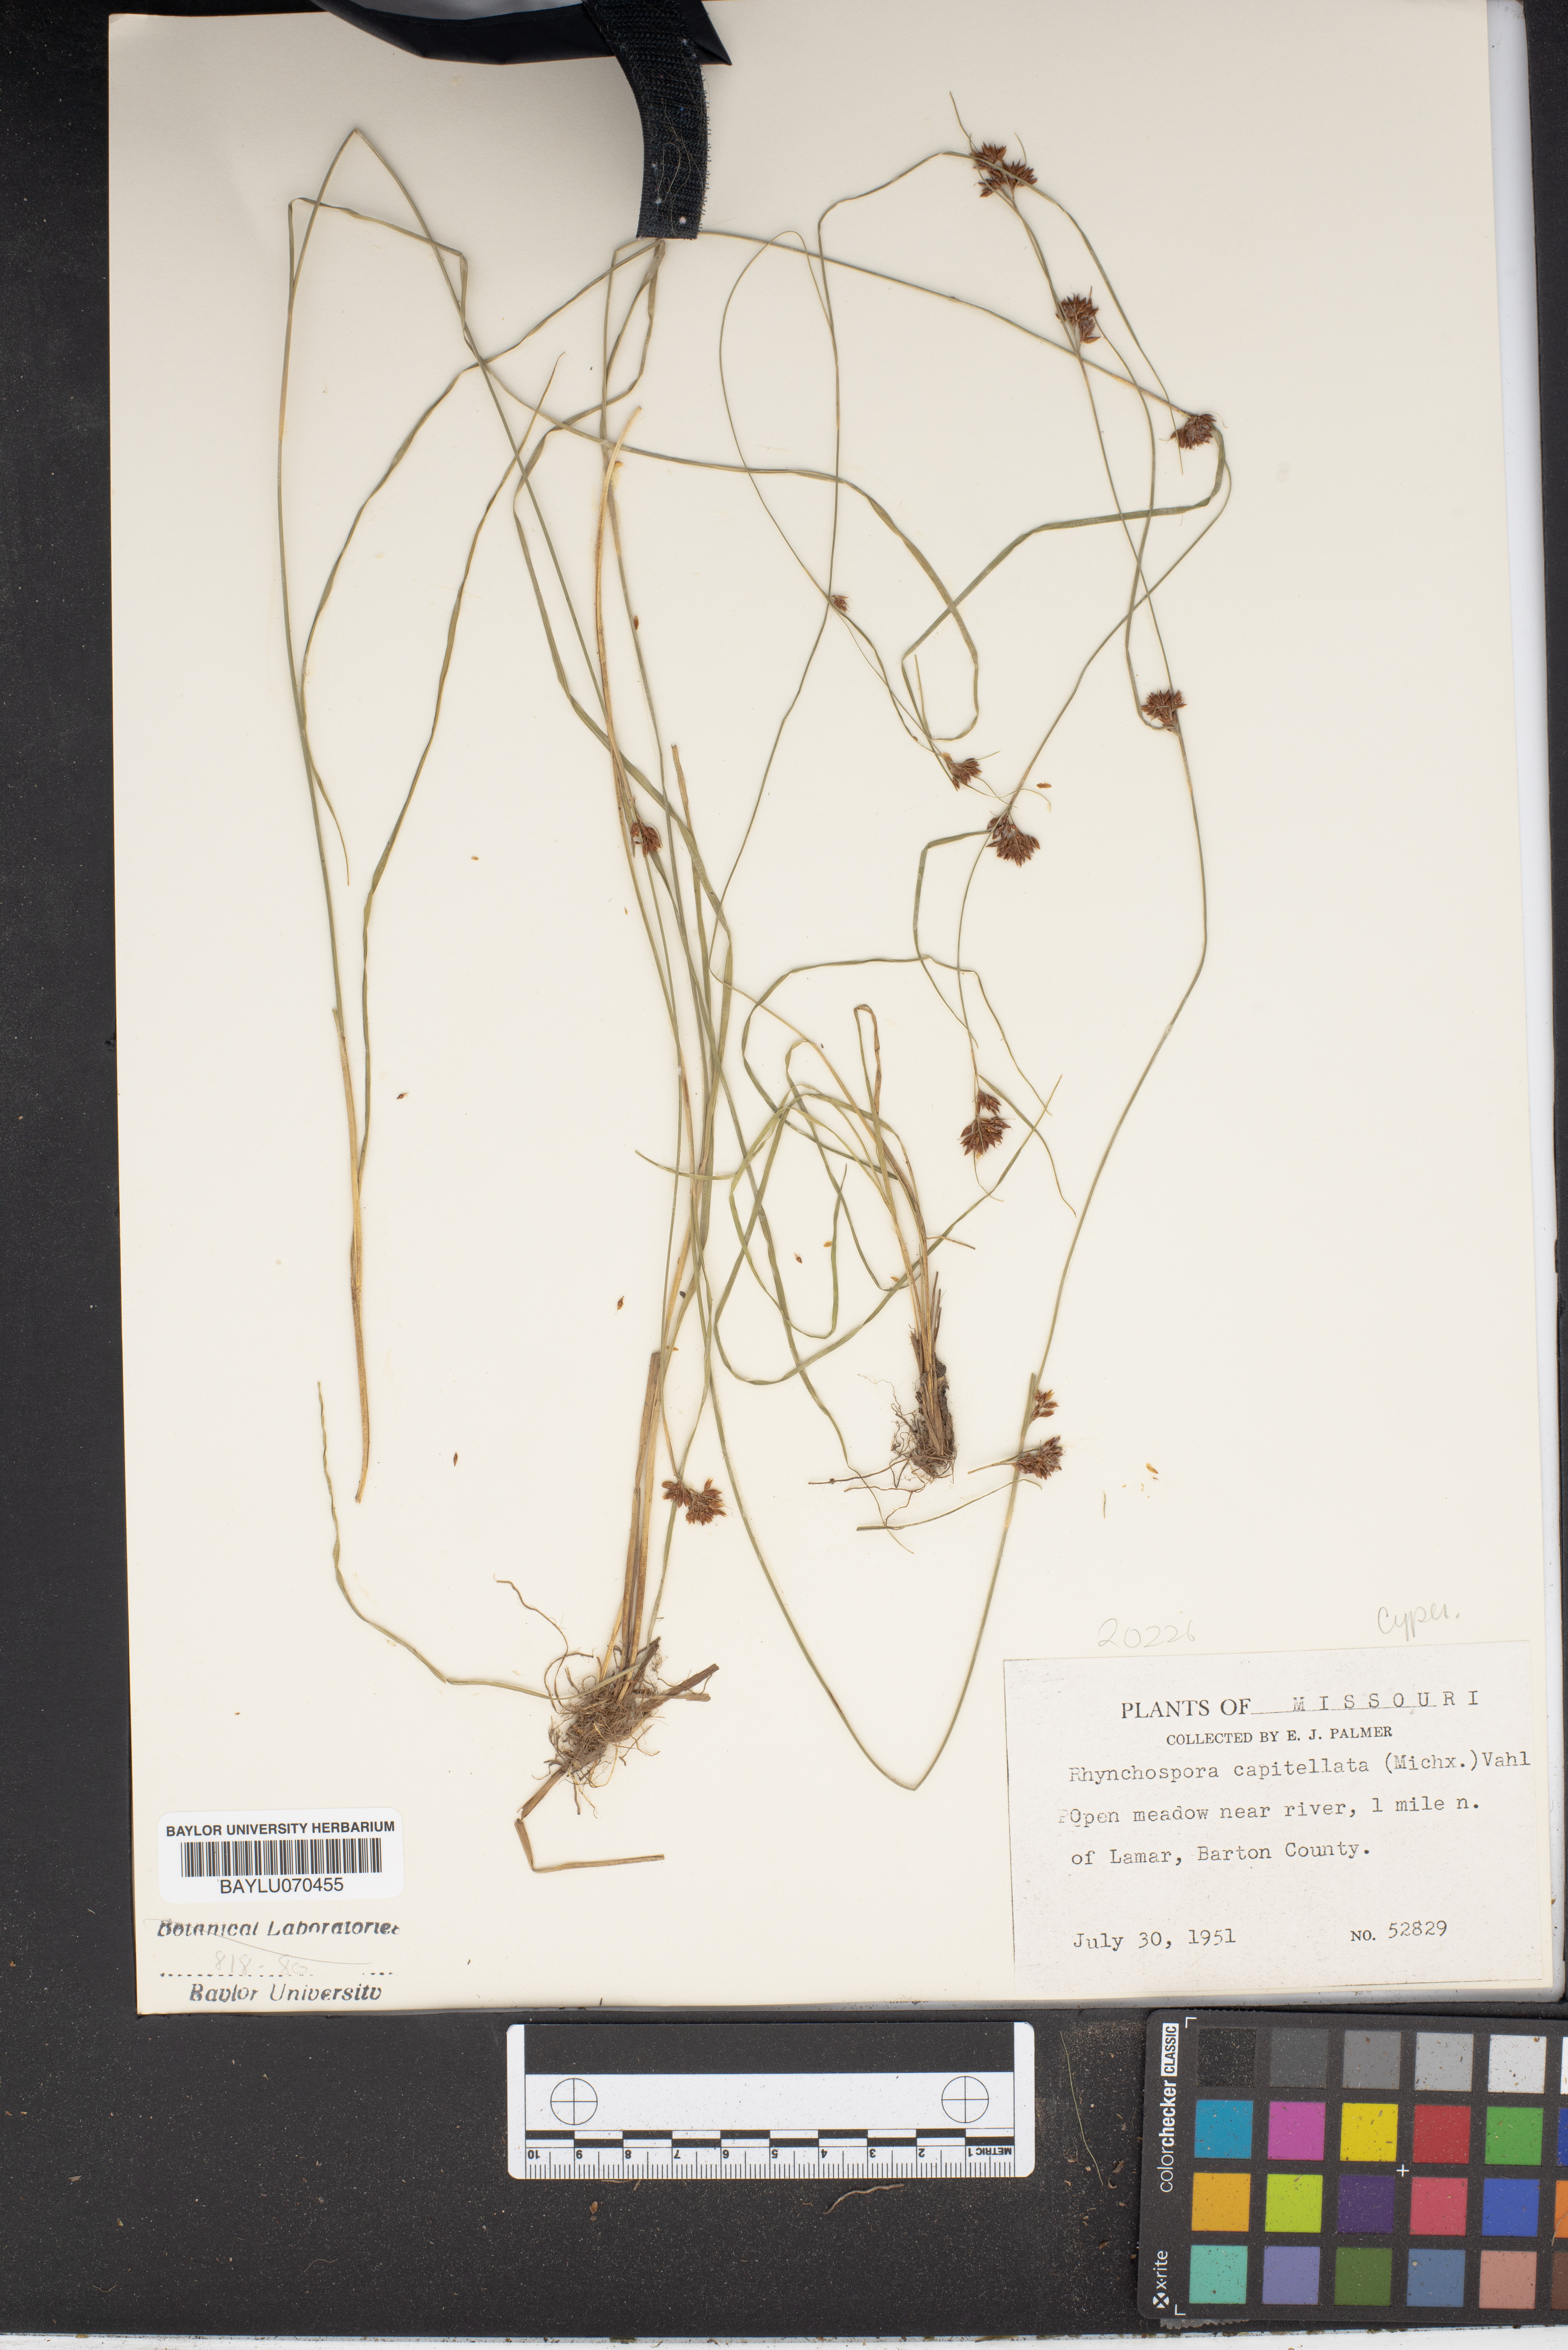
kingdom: Plantae
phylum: Tracheophyta
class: Liliopsida
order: Poales
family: Cyperaceae
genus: Rhynchospora
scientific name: Rhynchospora capitellata
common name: Brownish beaksedge
